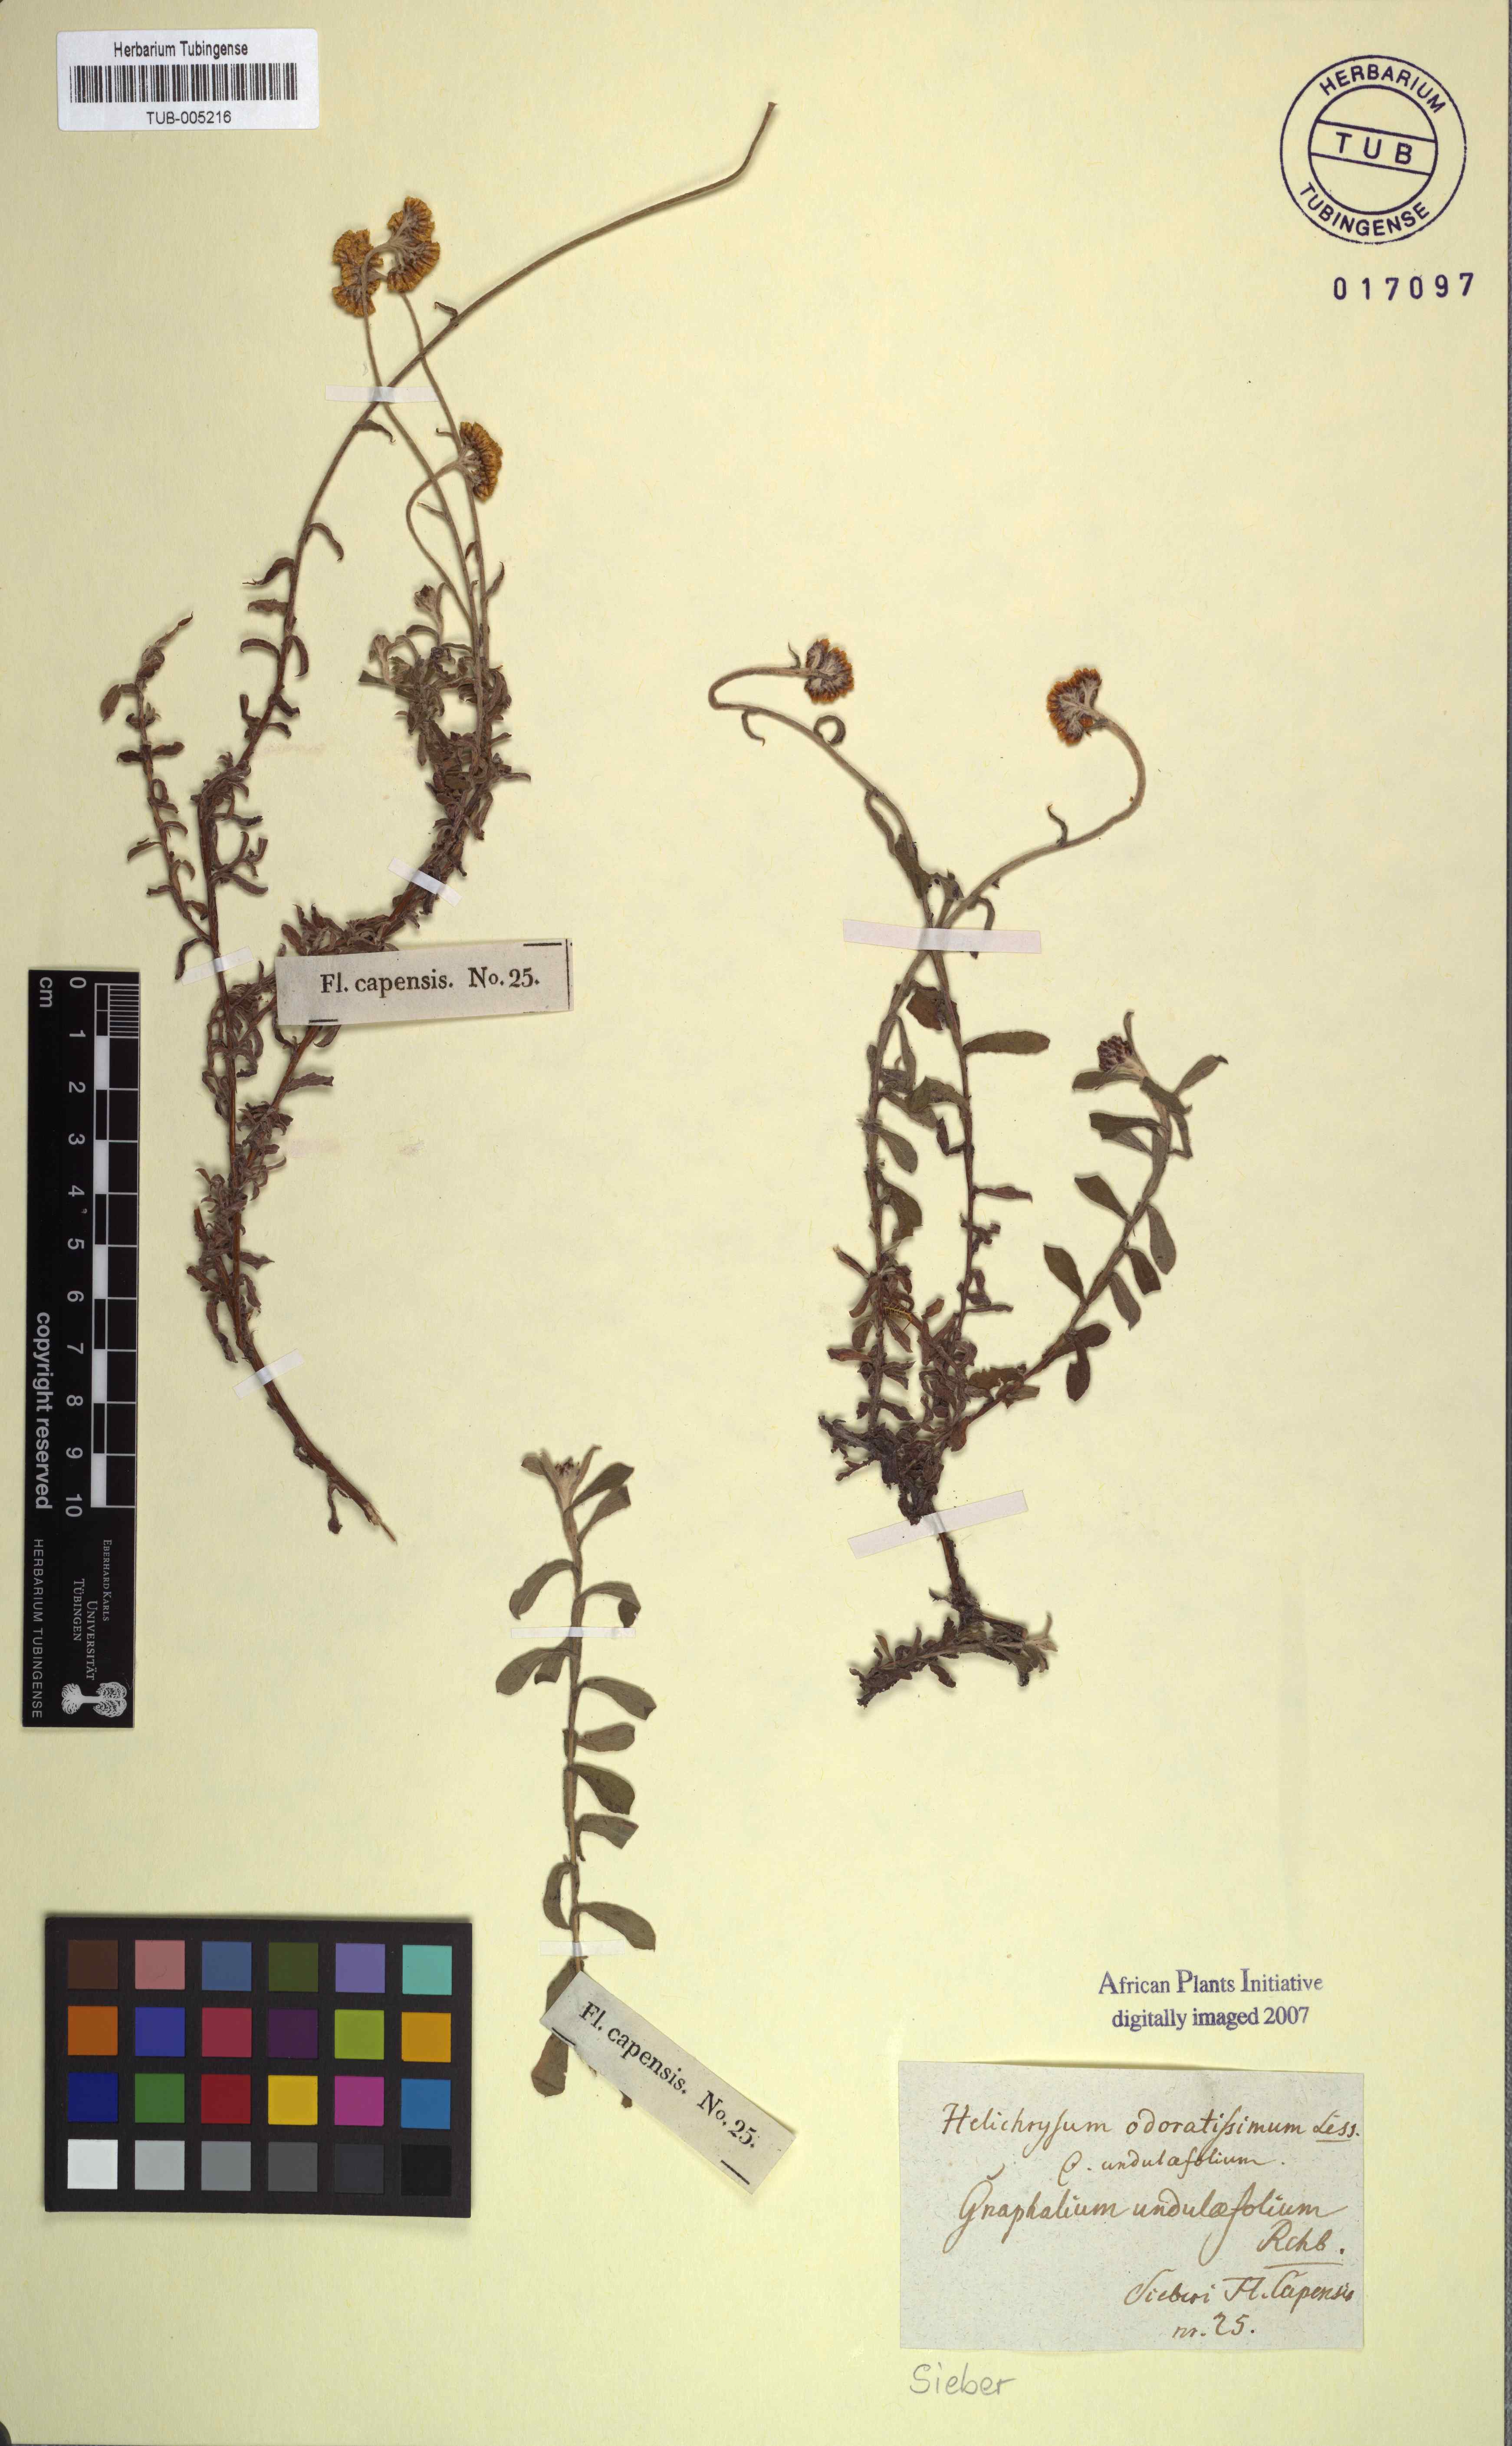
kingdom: Plantae
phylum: Tracheophyta
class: Magnoliopsida
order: Asterales
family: Asteraceae
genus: Helichrysum
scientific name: Helichrysum odoratissimum
